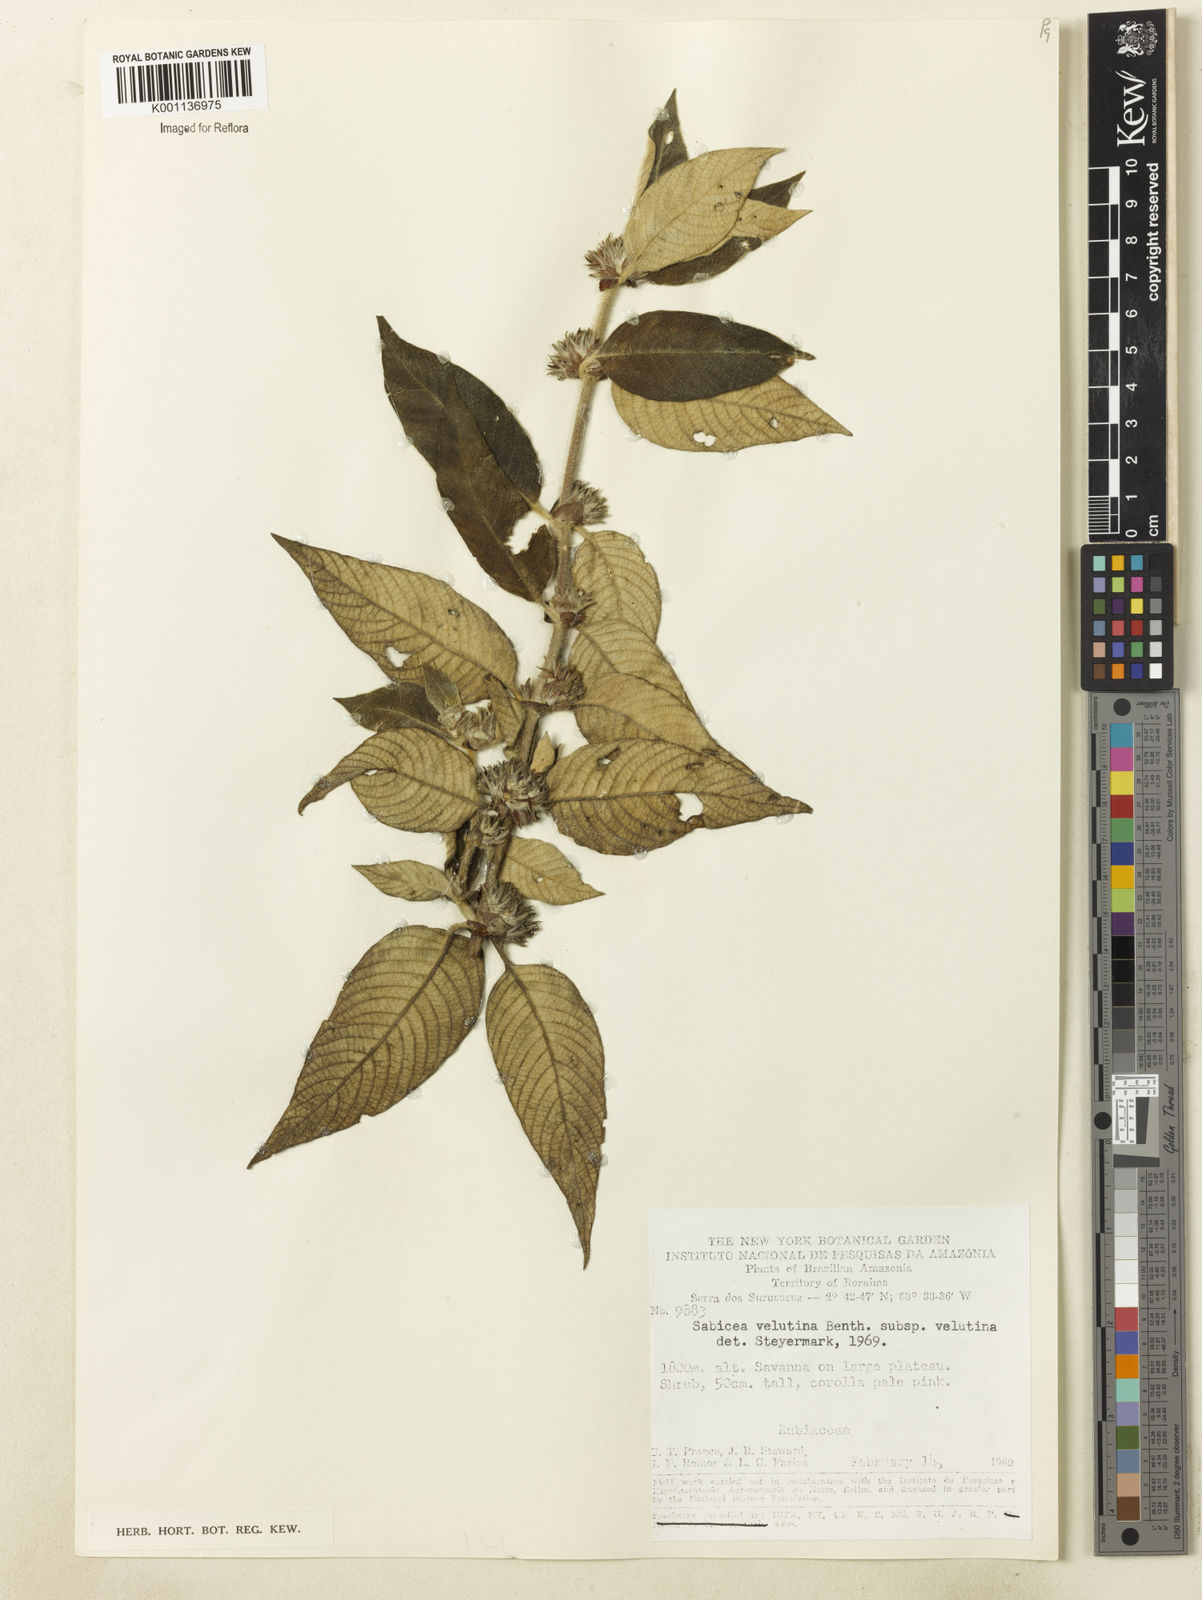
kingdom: Plantae
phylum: Tracheophyta
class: Magnoliopsida
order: Gentianales
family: Rubiaceae
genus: Sabicea
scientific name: Sabicea velutina
